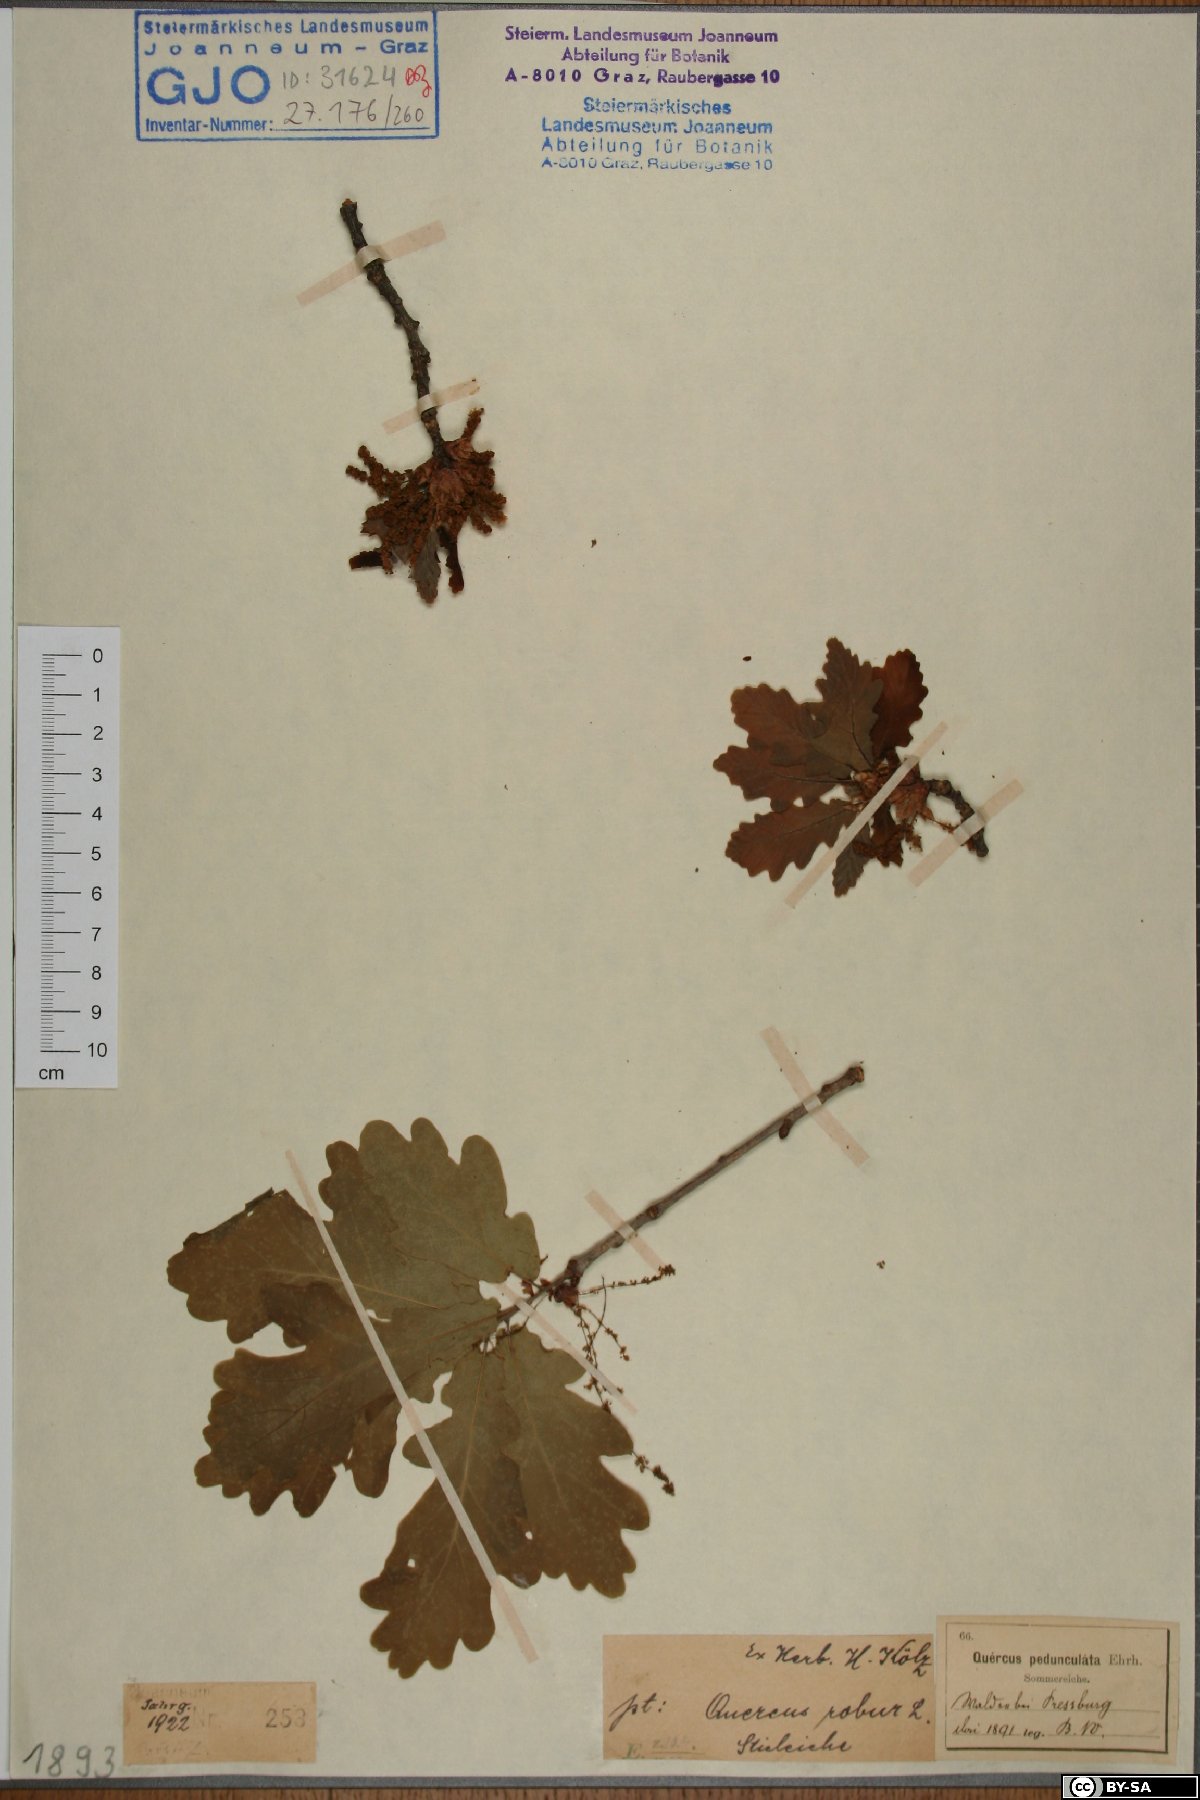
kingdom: Plantae
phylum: Tracheophyta
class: Magnoliopsida
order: Fagales
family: Fagaceae
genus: Quercus
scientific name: Quercus robur
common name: Pedunculate oak
